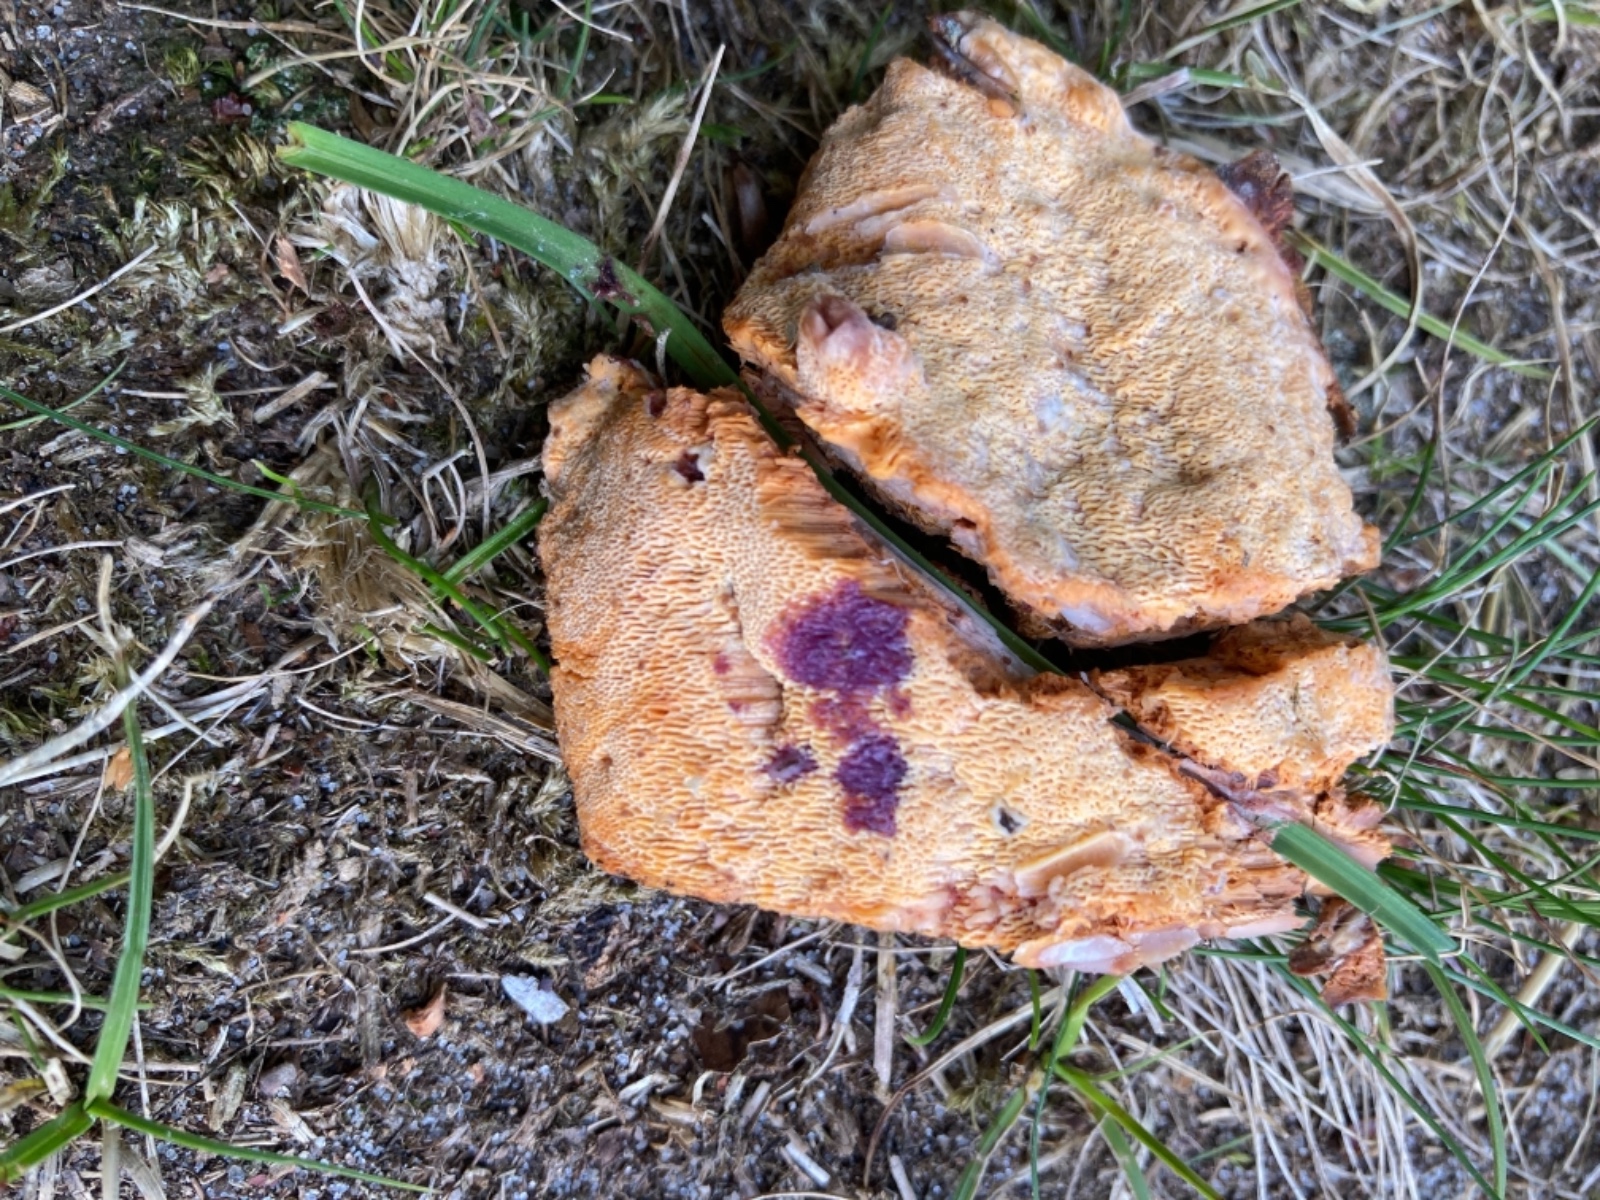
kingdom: Fungi
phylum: Basidiomycota
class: Agaricomycetes
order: Polyporales
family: Polyporaceae
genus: Erastia
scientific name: Erastia aurantiaca
